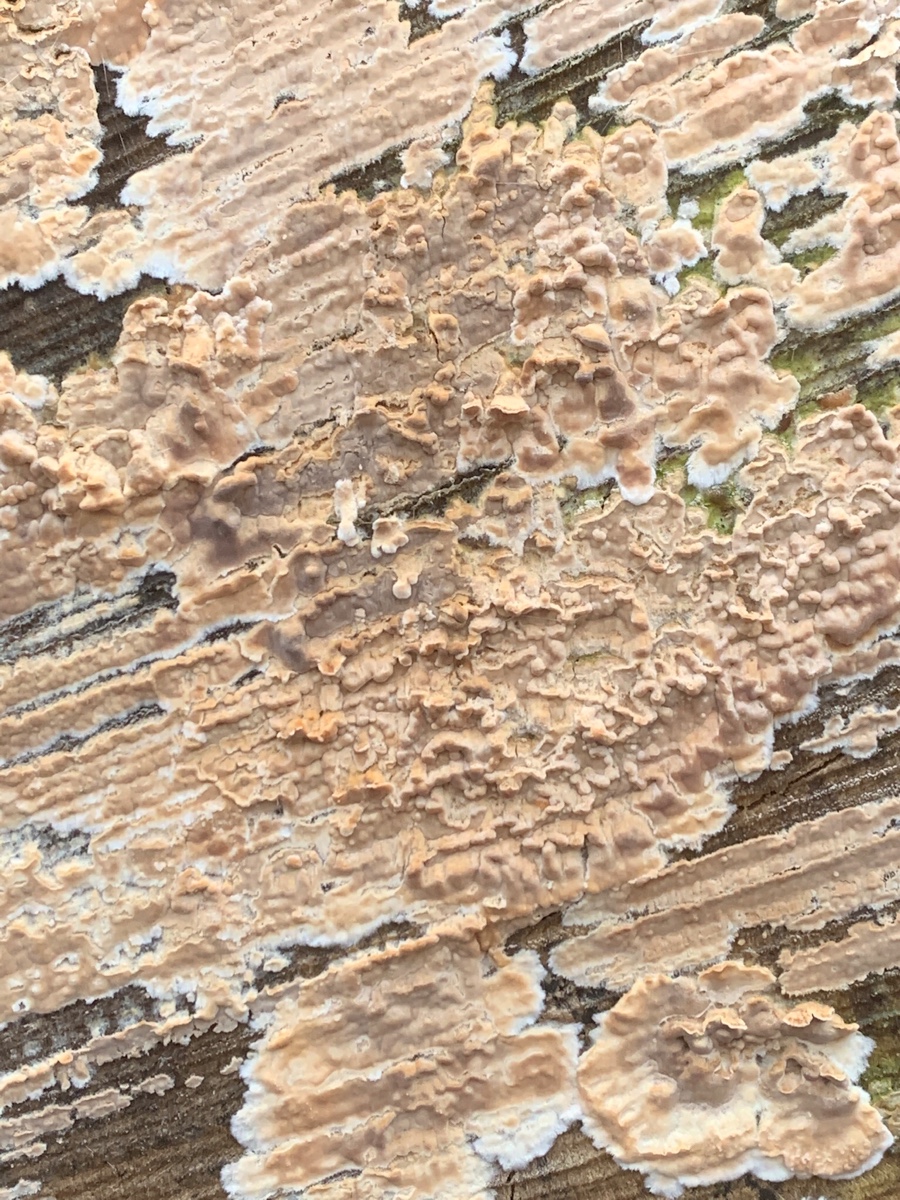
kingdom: Fungi
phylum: Basidiomycota
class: Agaricomycetes
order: Agaricales
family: Physalacriaceae
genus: Cylindrobasidium
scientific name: Cylindrobasidium evolvens
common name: sprækkehinde
